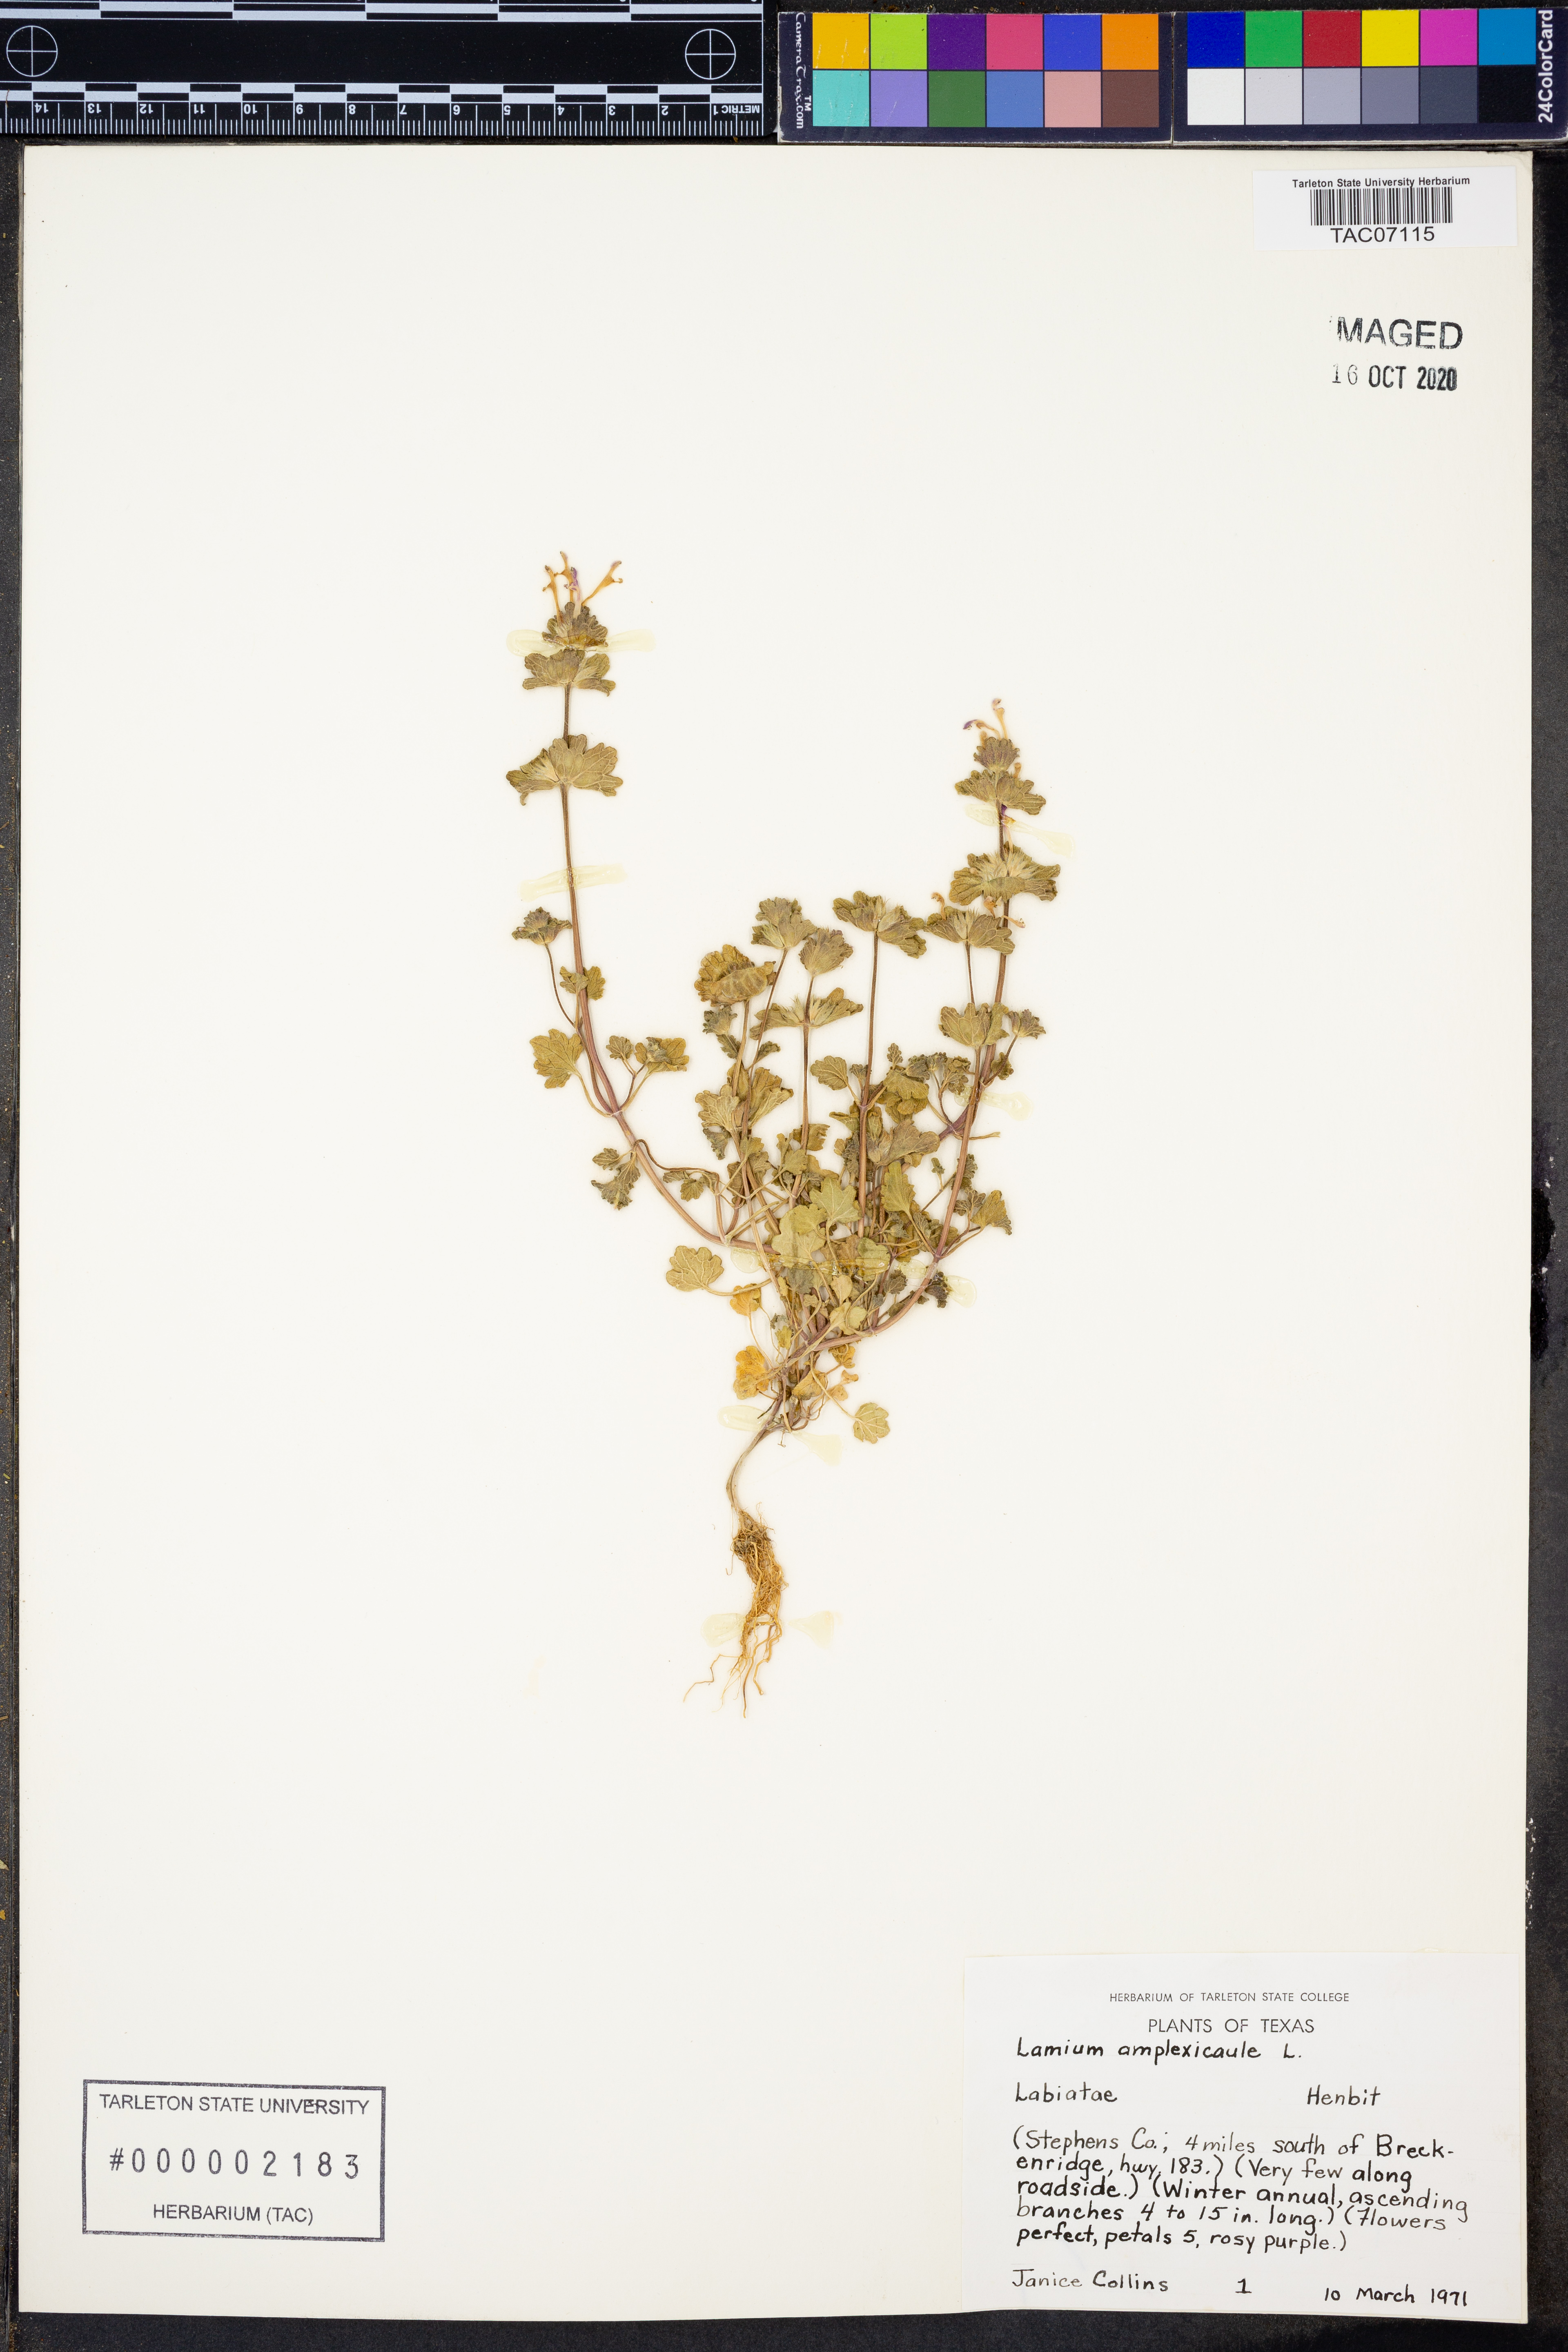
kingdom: Plantae
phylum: Tracheophyta
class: Magnoliopsida
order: Lamiales
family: Lamiaceae
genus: Lamium
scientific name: Lamium amplexicaule
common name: Henbit dead-nettle
